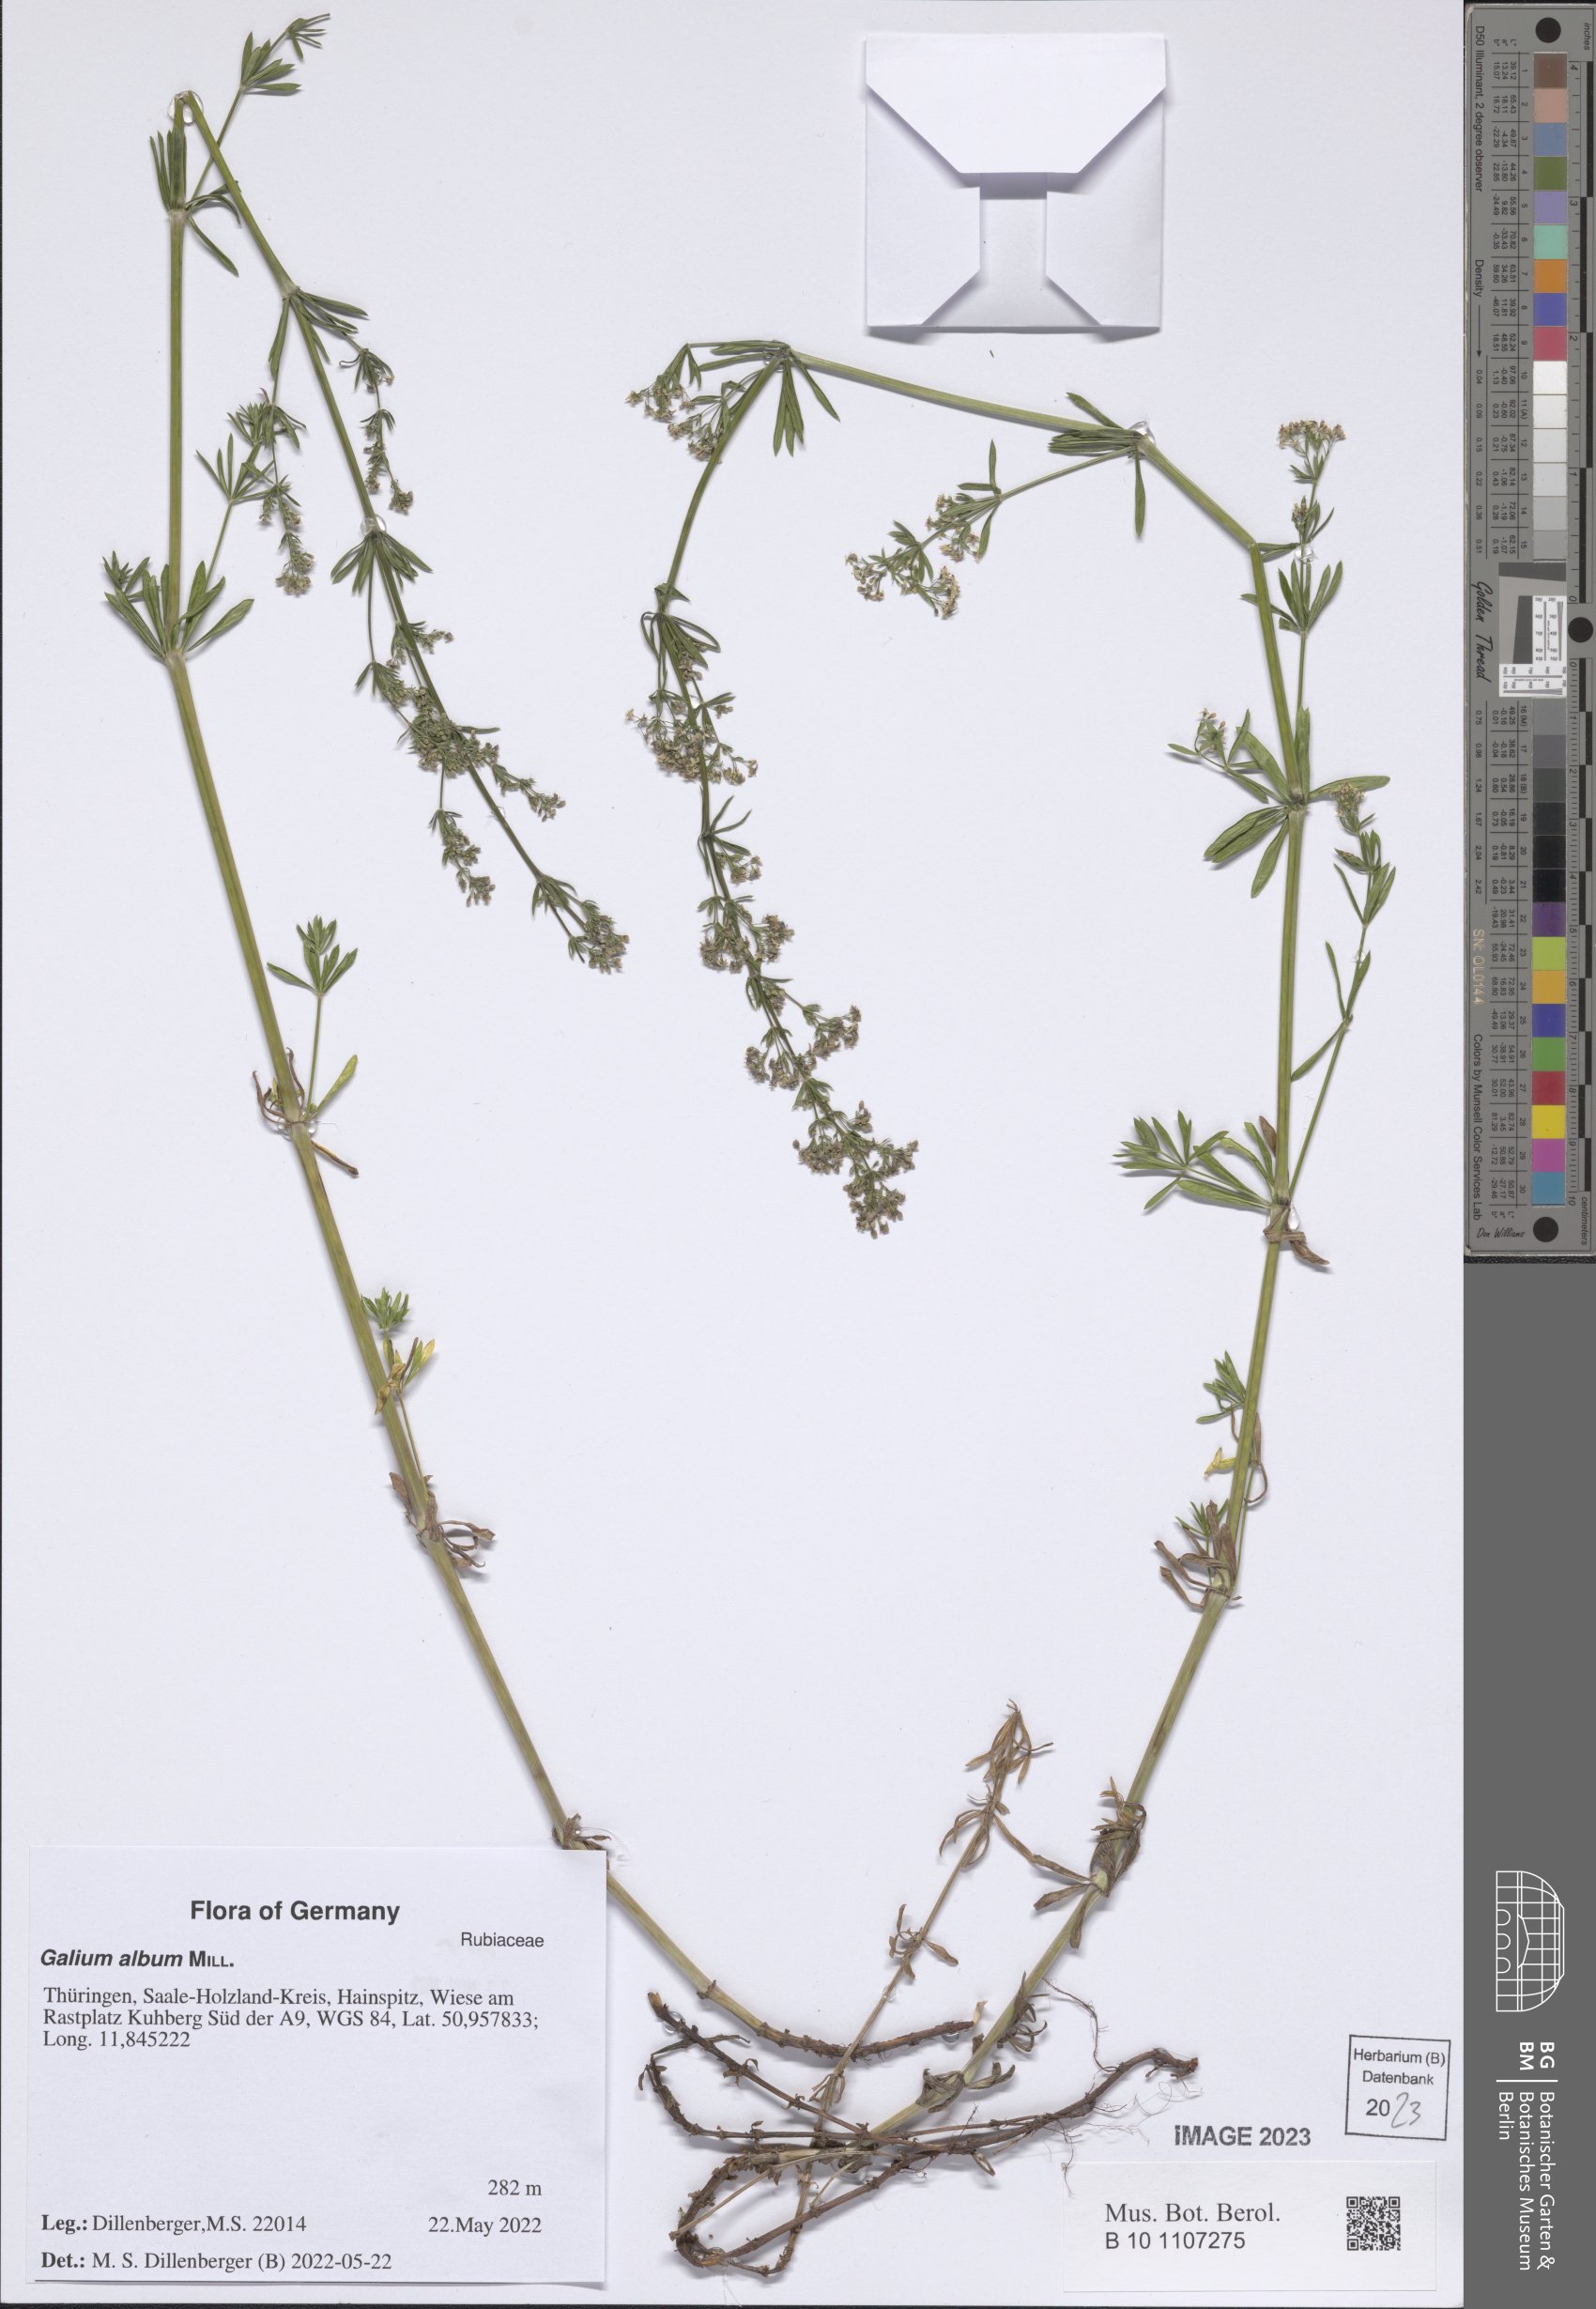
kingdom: Plantae
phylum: Tracheophyta
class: Magnoliopsida
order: Gentianales
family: Rubiaceae
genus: Galium
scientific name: Galium album
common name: White bedstraw
